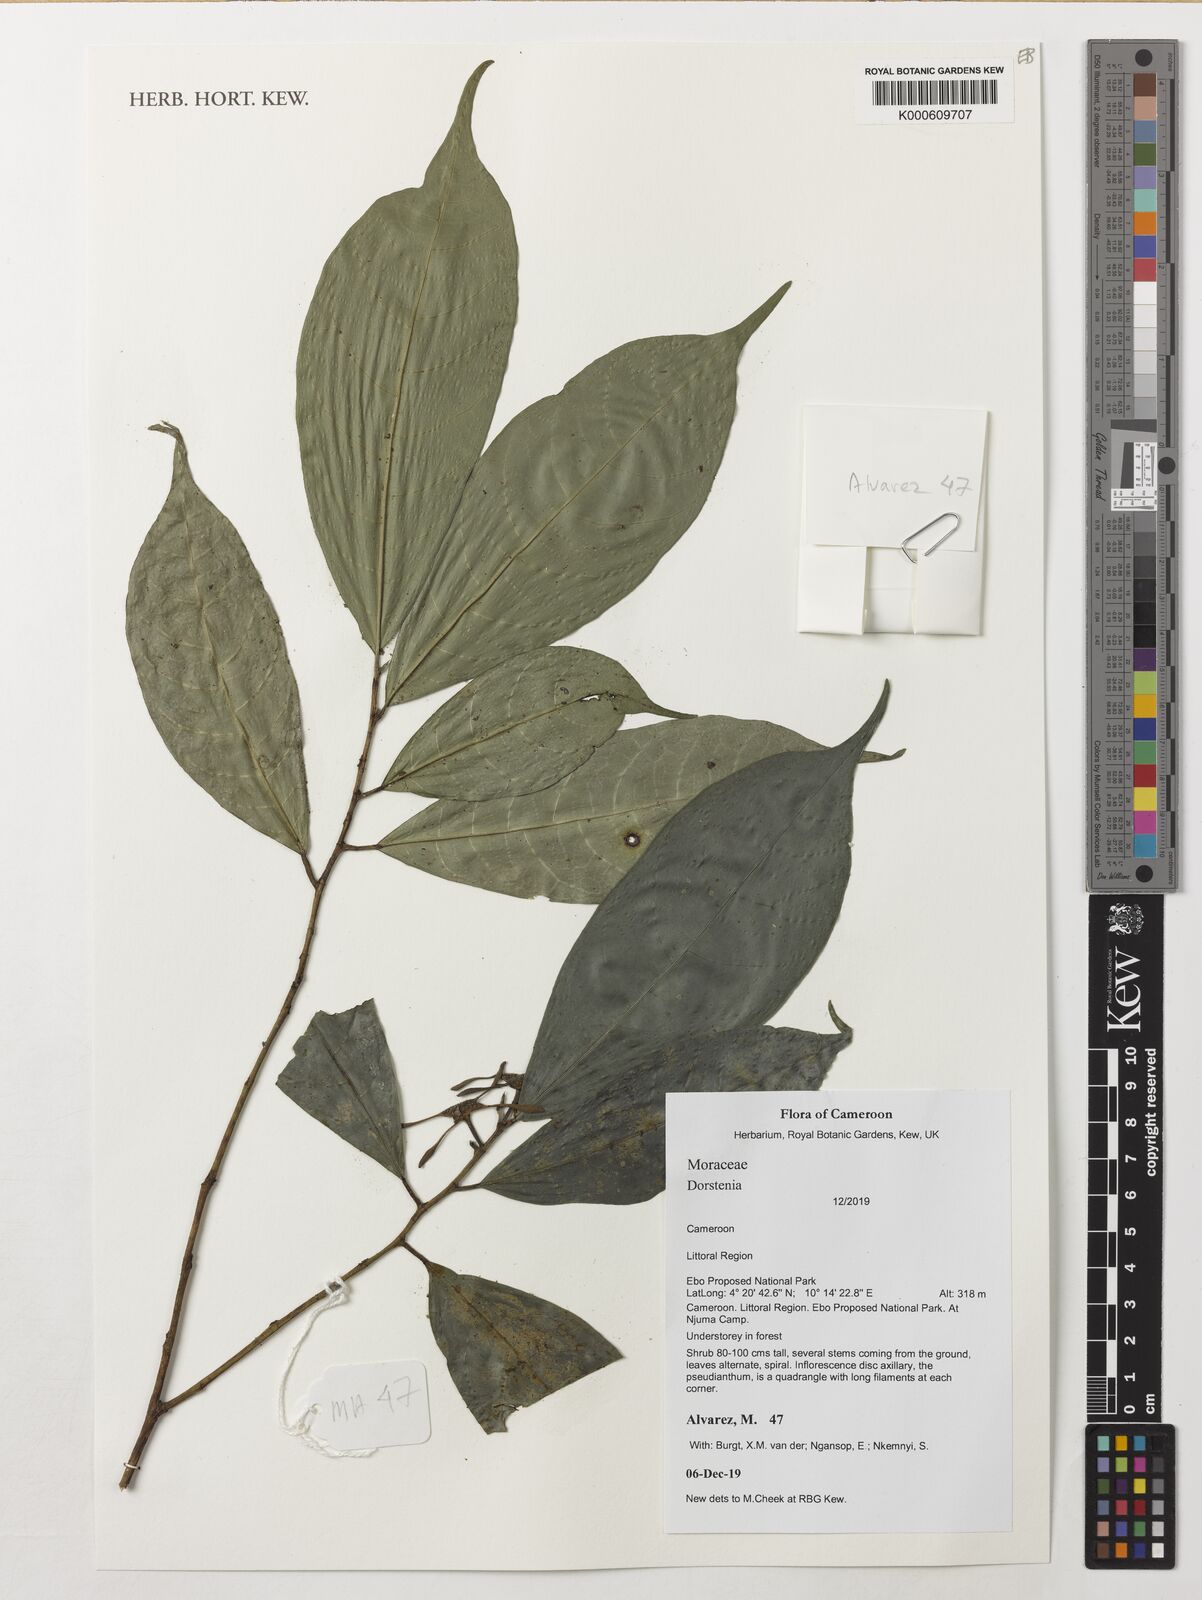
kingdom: Plantae
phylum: Tracheophyta
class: Magnoliopsida
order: Rosales
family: Moraceae
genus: Dorstenia
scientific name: Dorstenia
